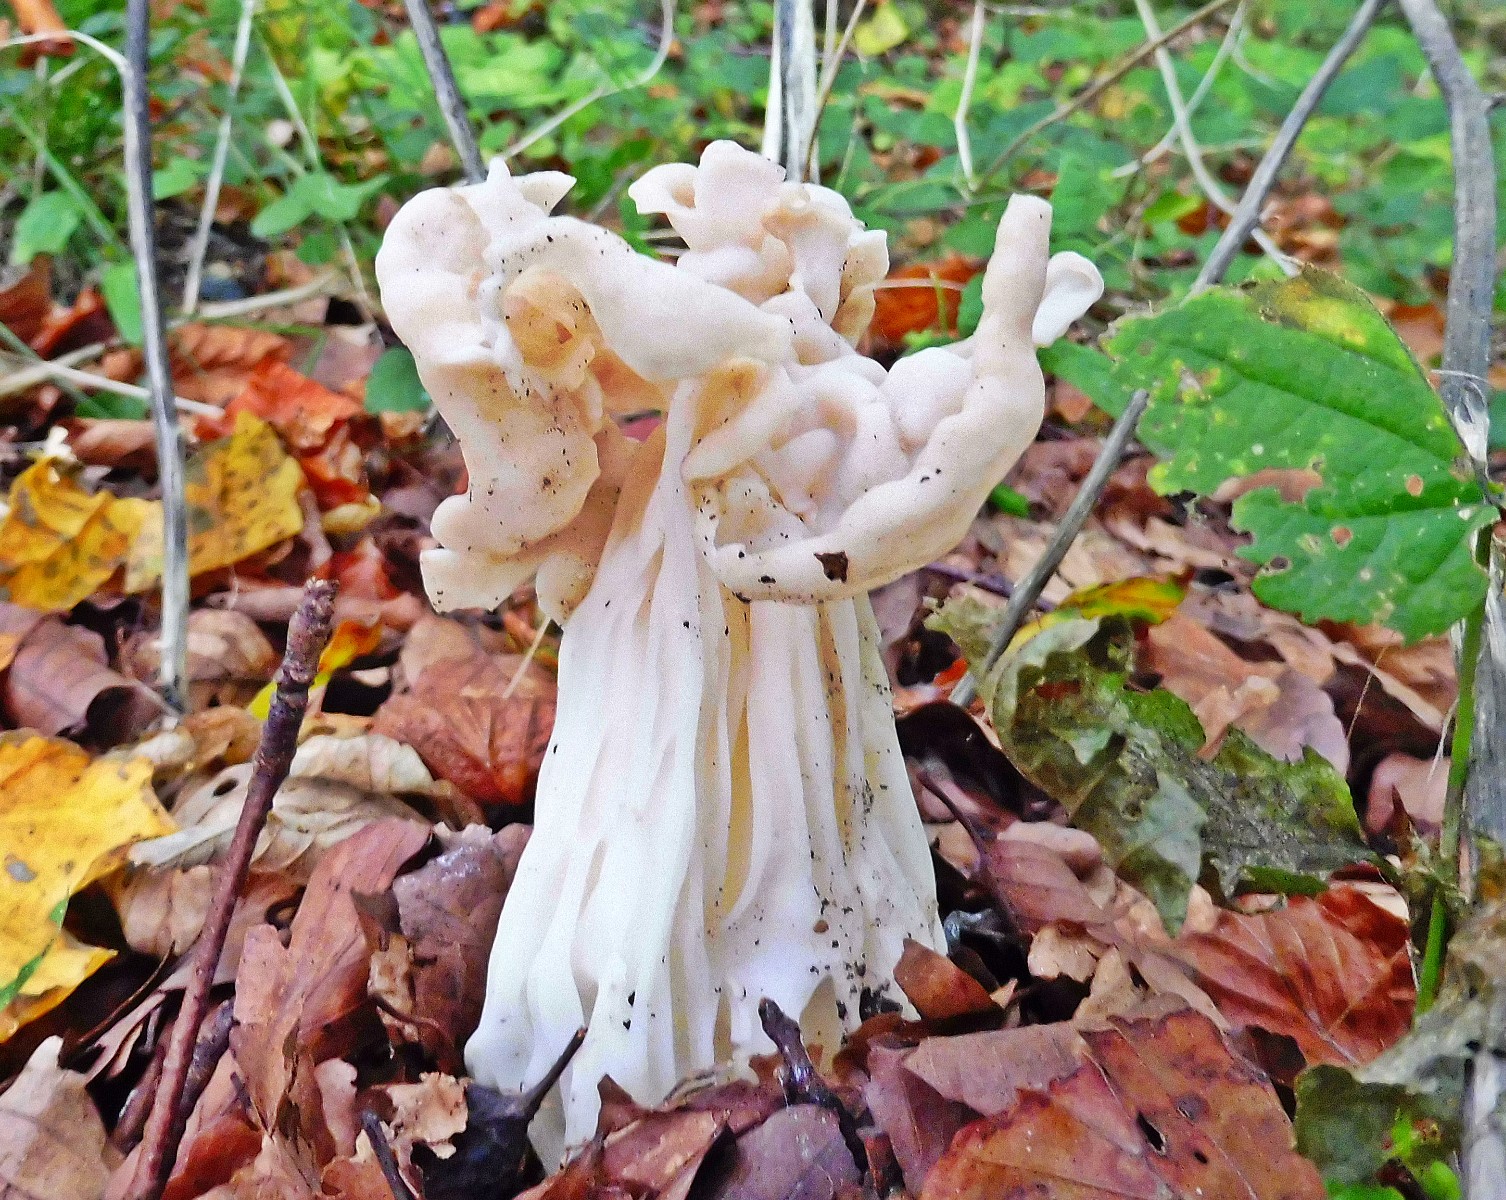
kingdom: Fungi
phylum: Ascomycota
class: Pezizomycetes
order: Pezizales
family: Helvellaceae
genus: Helvella
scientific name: Helvella crispa
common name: kruset foldhat
